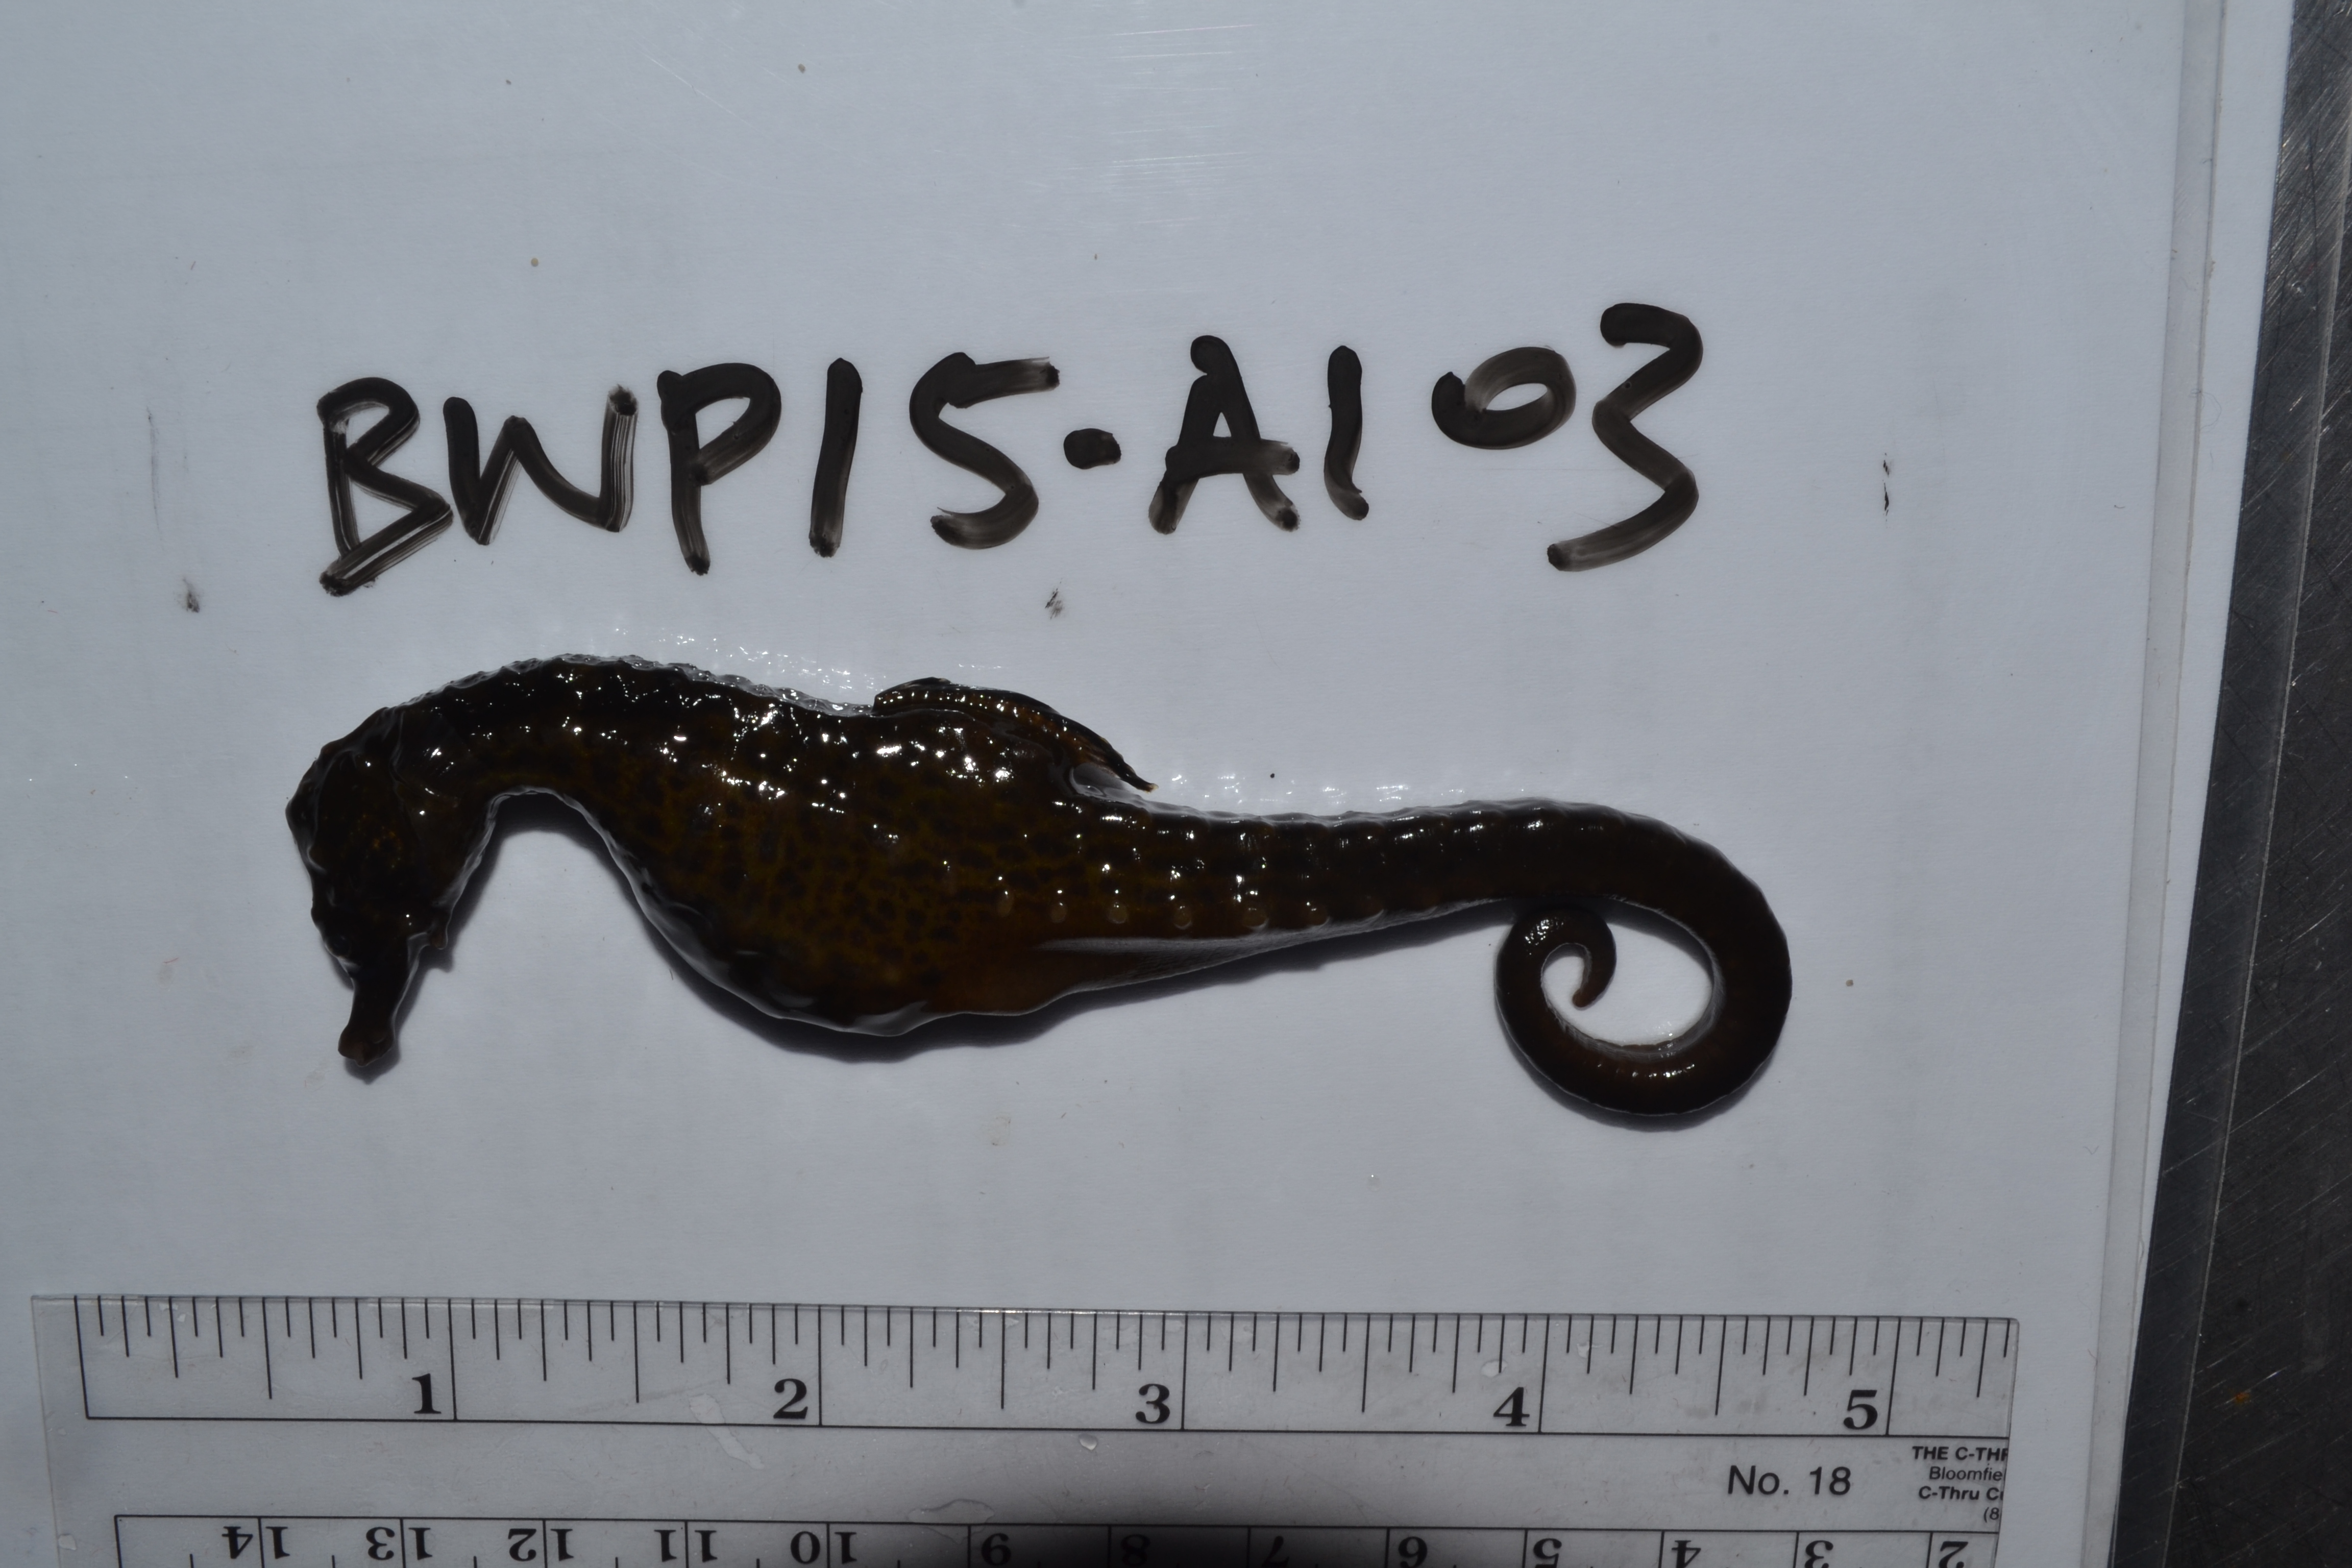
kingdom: Animalia
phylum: Chordata
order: Syngnathiformes
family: Syngnathidae
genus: Hippocampus
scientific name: Hippocampus capensis
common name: Cape seahorse
